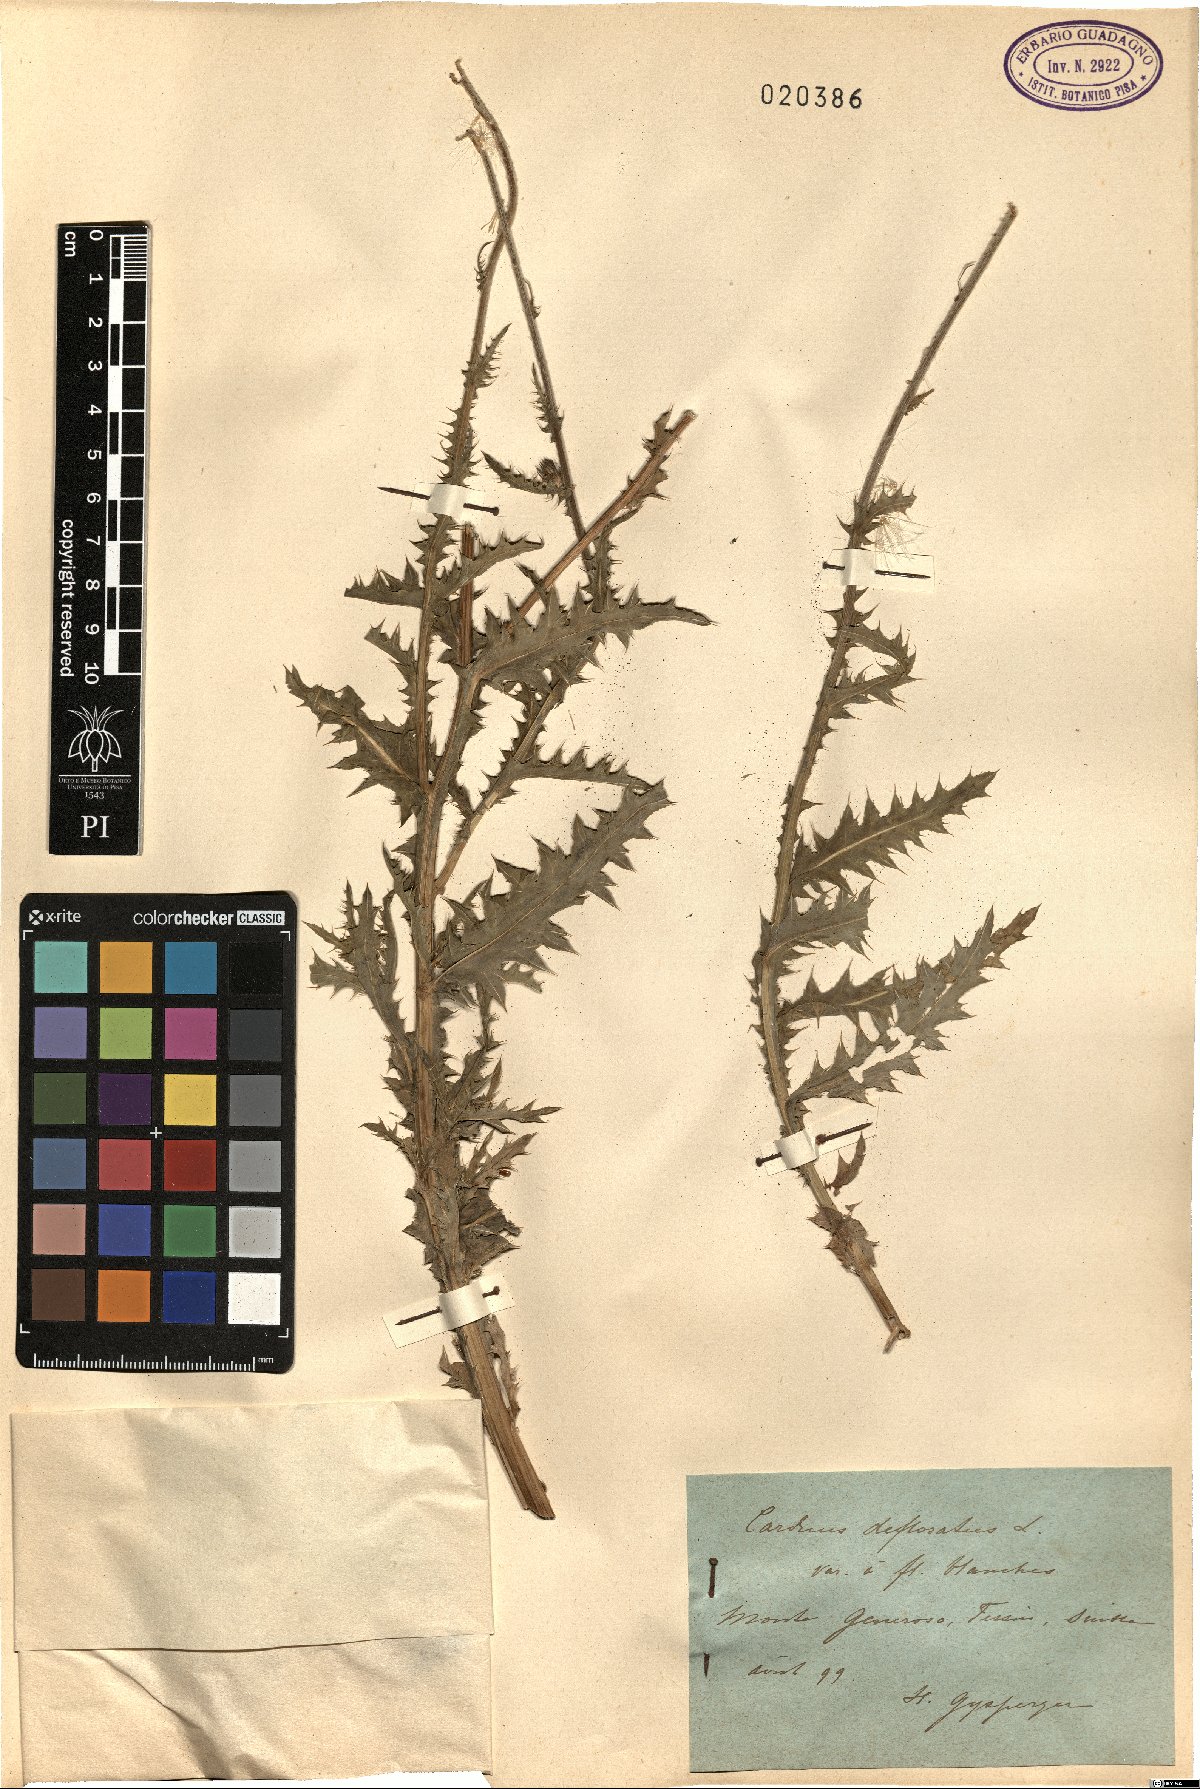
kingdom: Plantae
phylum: Tracheophyta
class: Magnoliopsida
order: Asterales
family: Asteraceae
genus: Carduus
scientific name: Carduus defloratus
